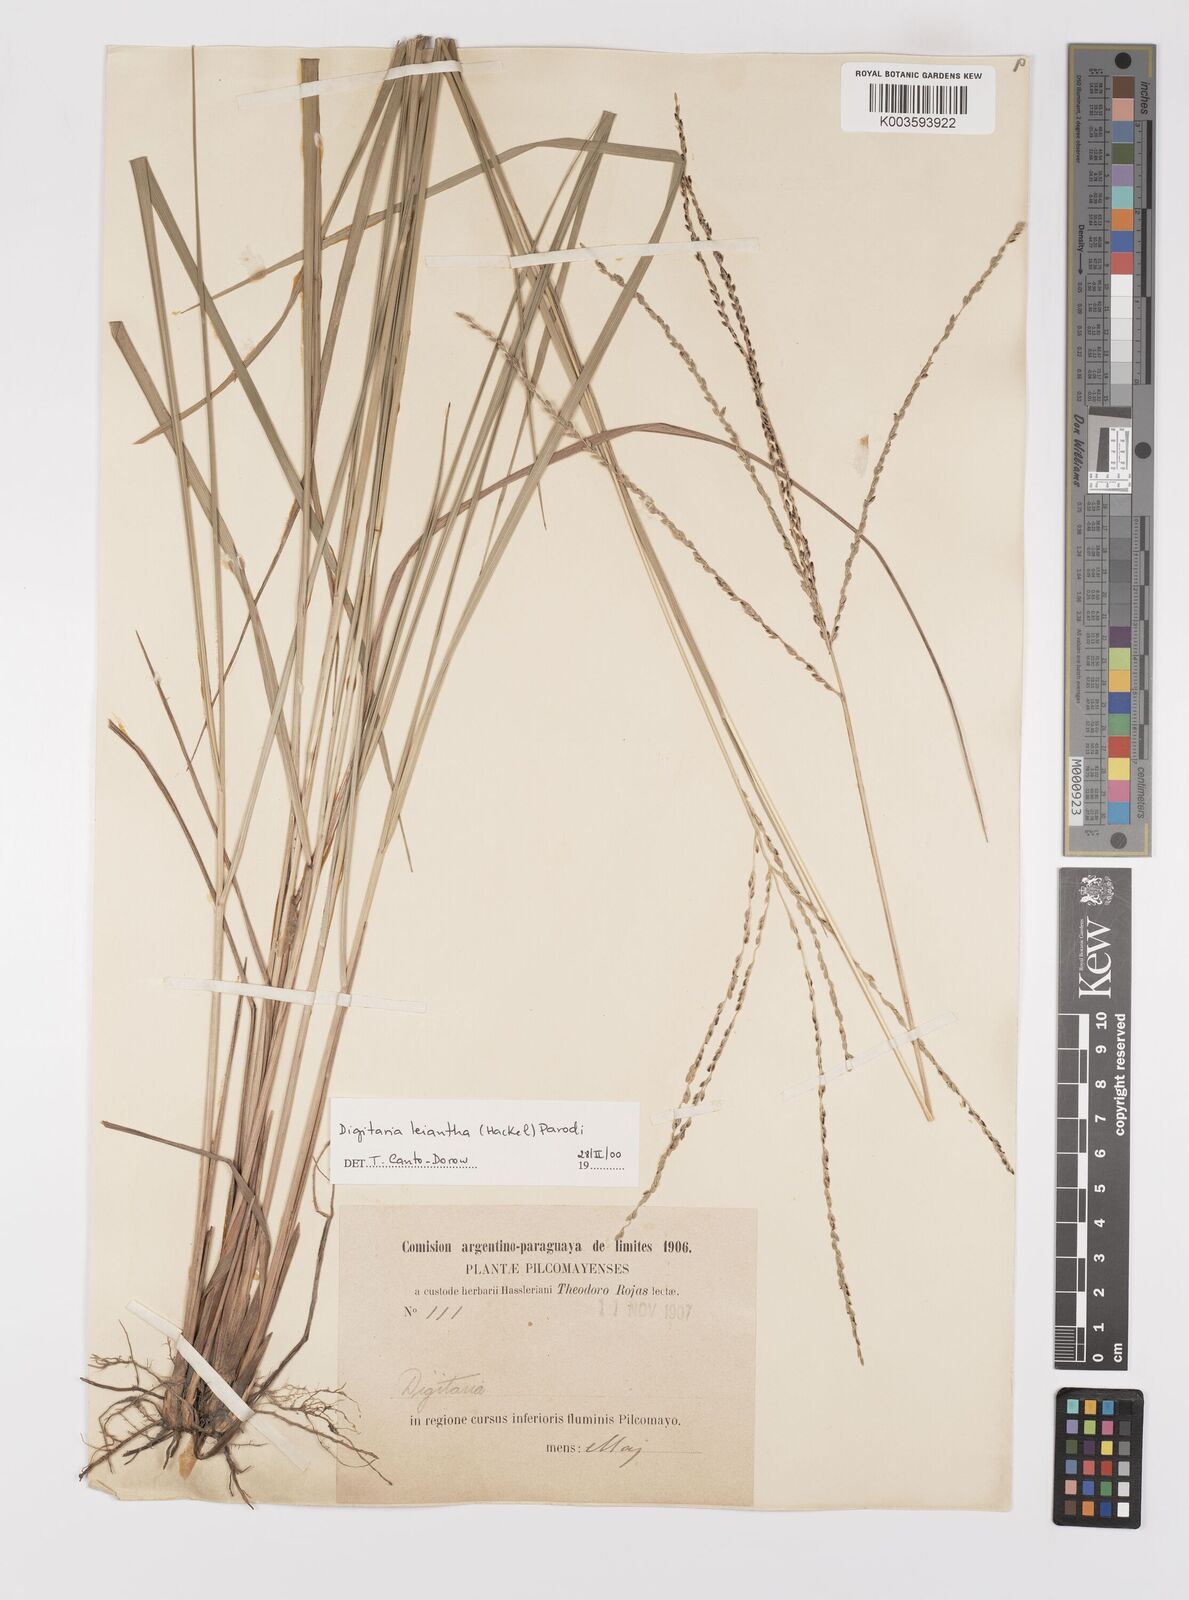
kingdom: Plantae
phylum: Tracheophyta
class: Liliopsida
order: Poales
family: Poaceae
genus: Digitaria
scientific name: Digitaria leiantha
